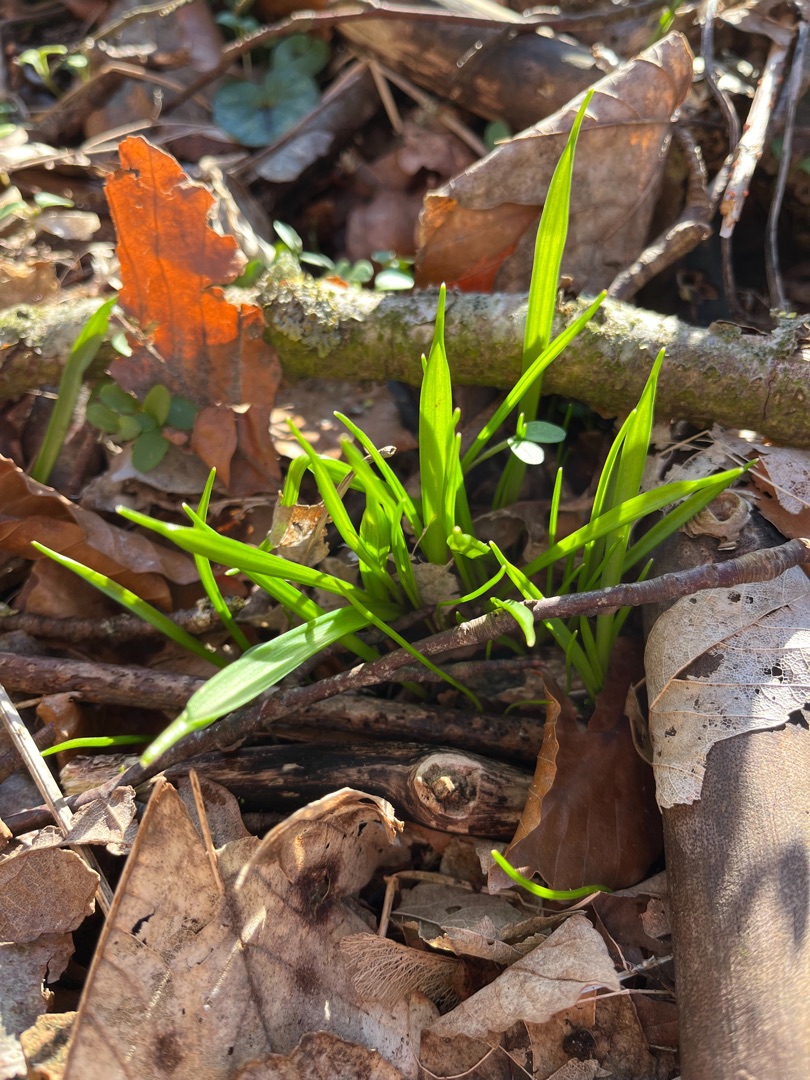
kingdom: Plantae
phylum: Tracheophyta
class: Liliopsida
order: Liliales
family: Liliaceae
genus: Gagea
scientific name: Gagea lutea
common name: Almindelig guldstjerne
